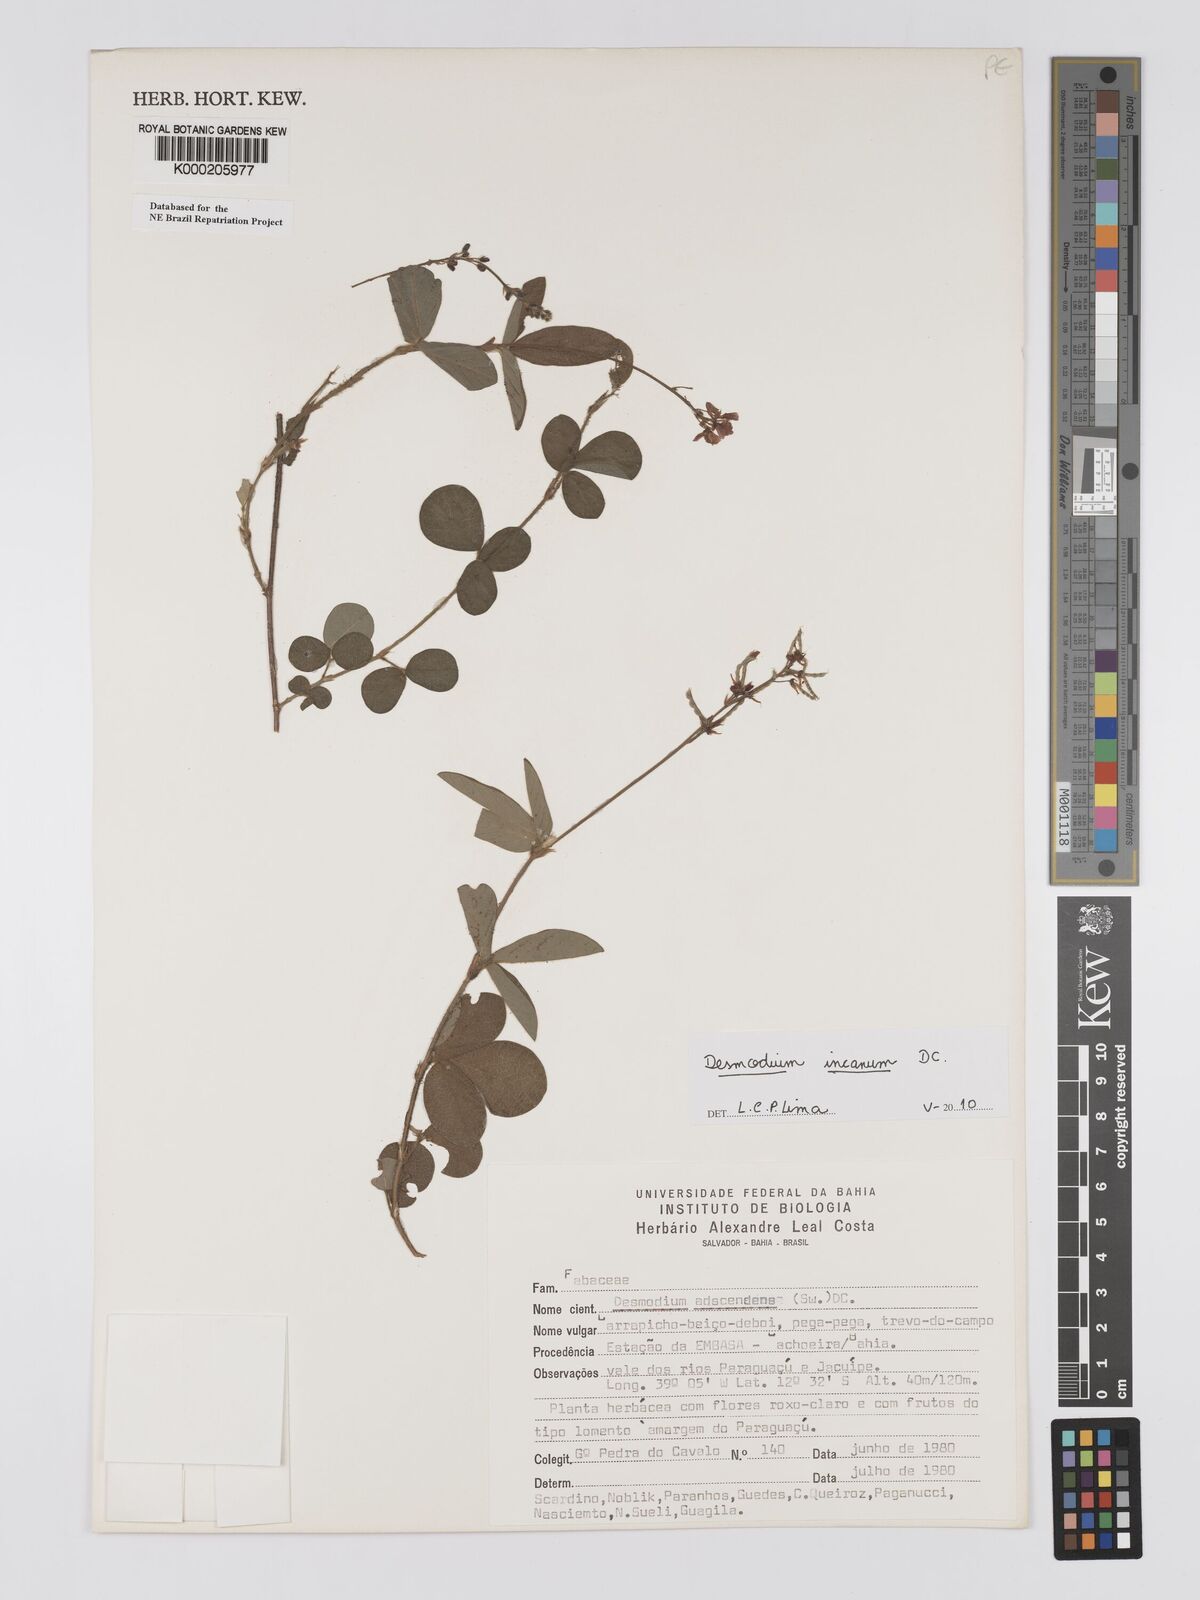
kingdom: Plantae
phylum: Tracheophyta
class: Magnoliopsida
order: Fabales
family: Fabaceae
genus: Grona
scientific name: Grona adscendens
